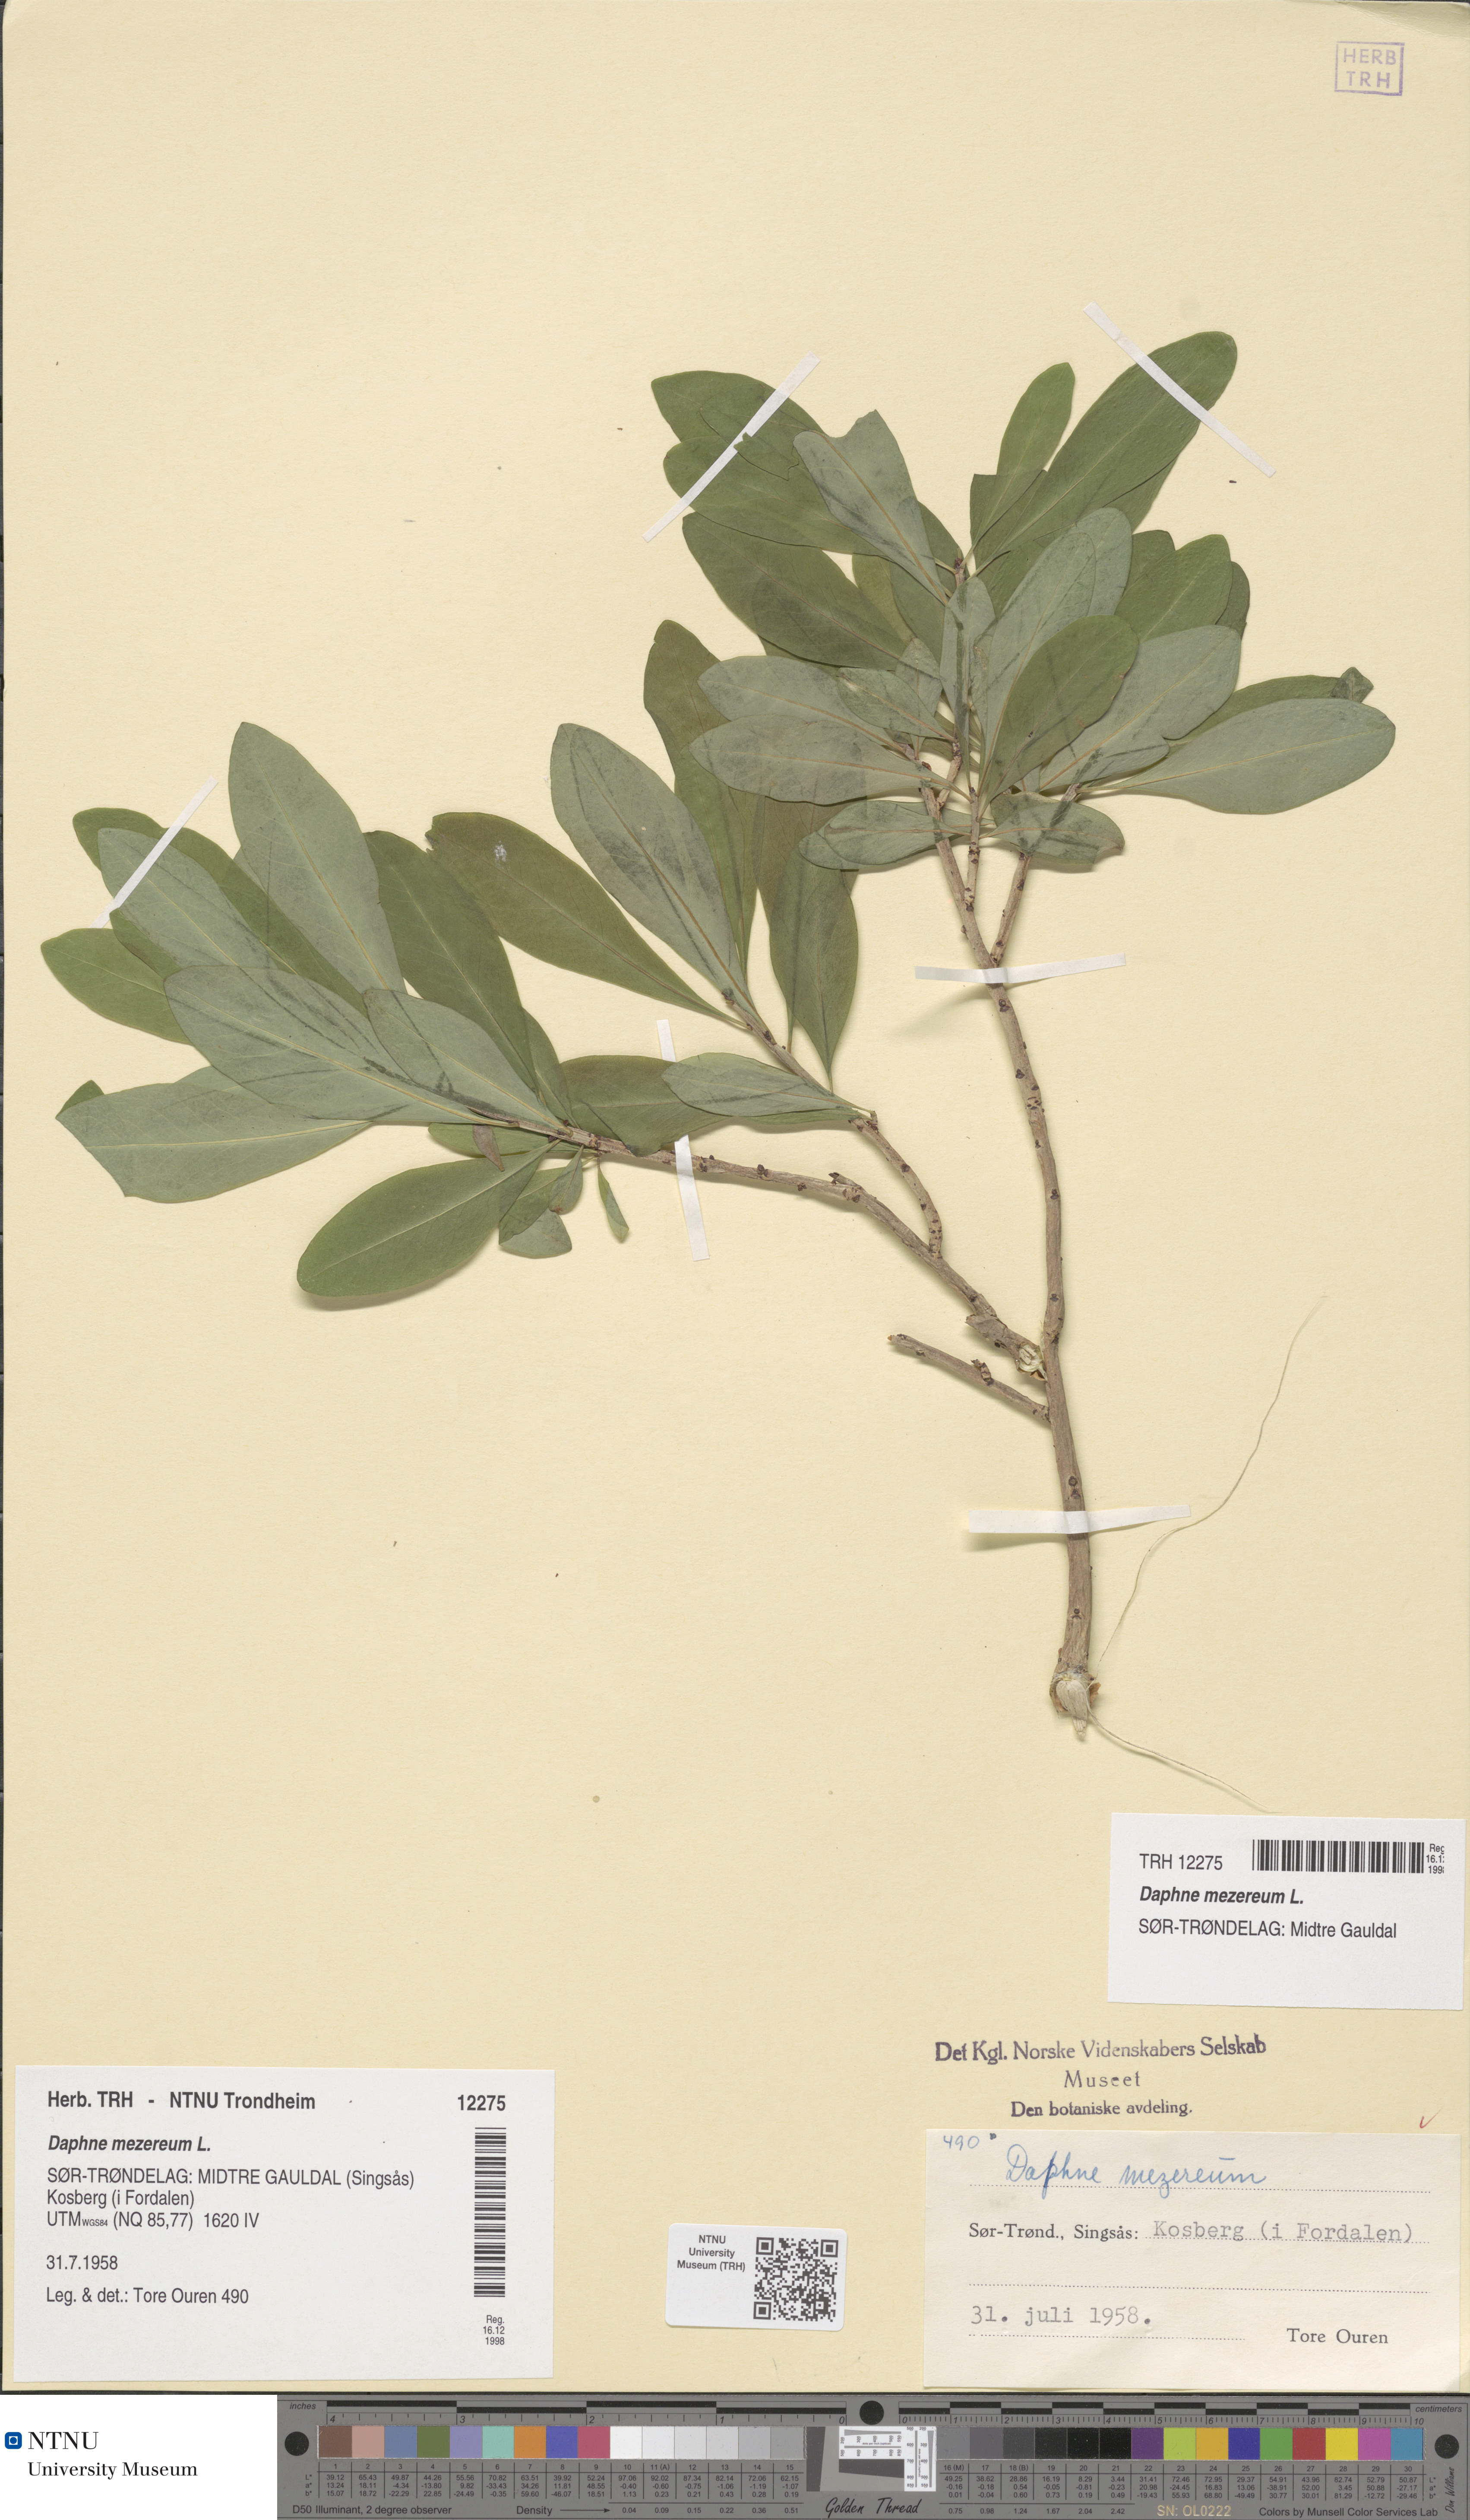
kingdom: Plantae
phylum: Tracheophyta
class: Magnoliopsida
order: Malvales
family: Thymelaeaceae
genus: Daphne
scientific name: Daphne mezereum
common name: Mezereon
